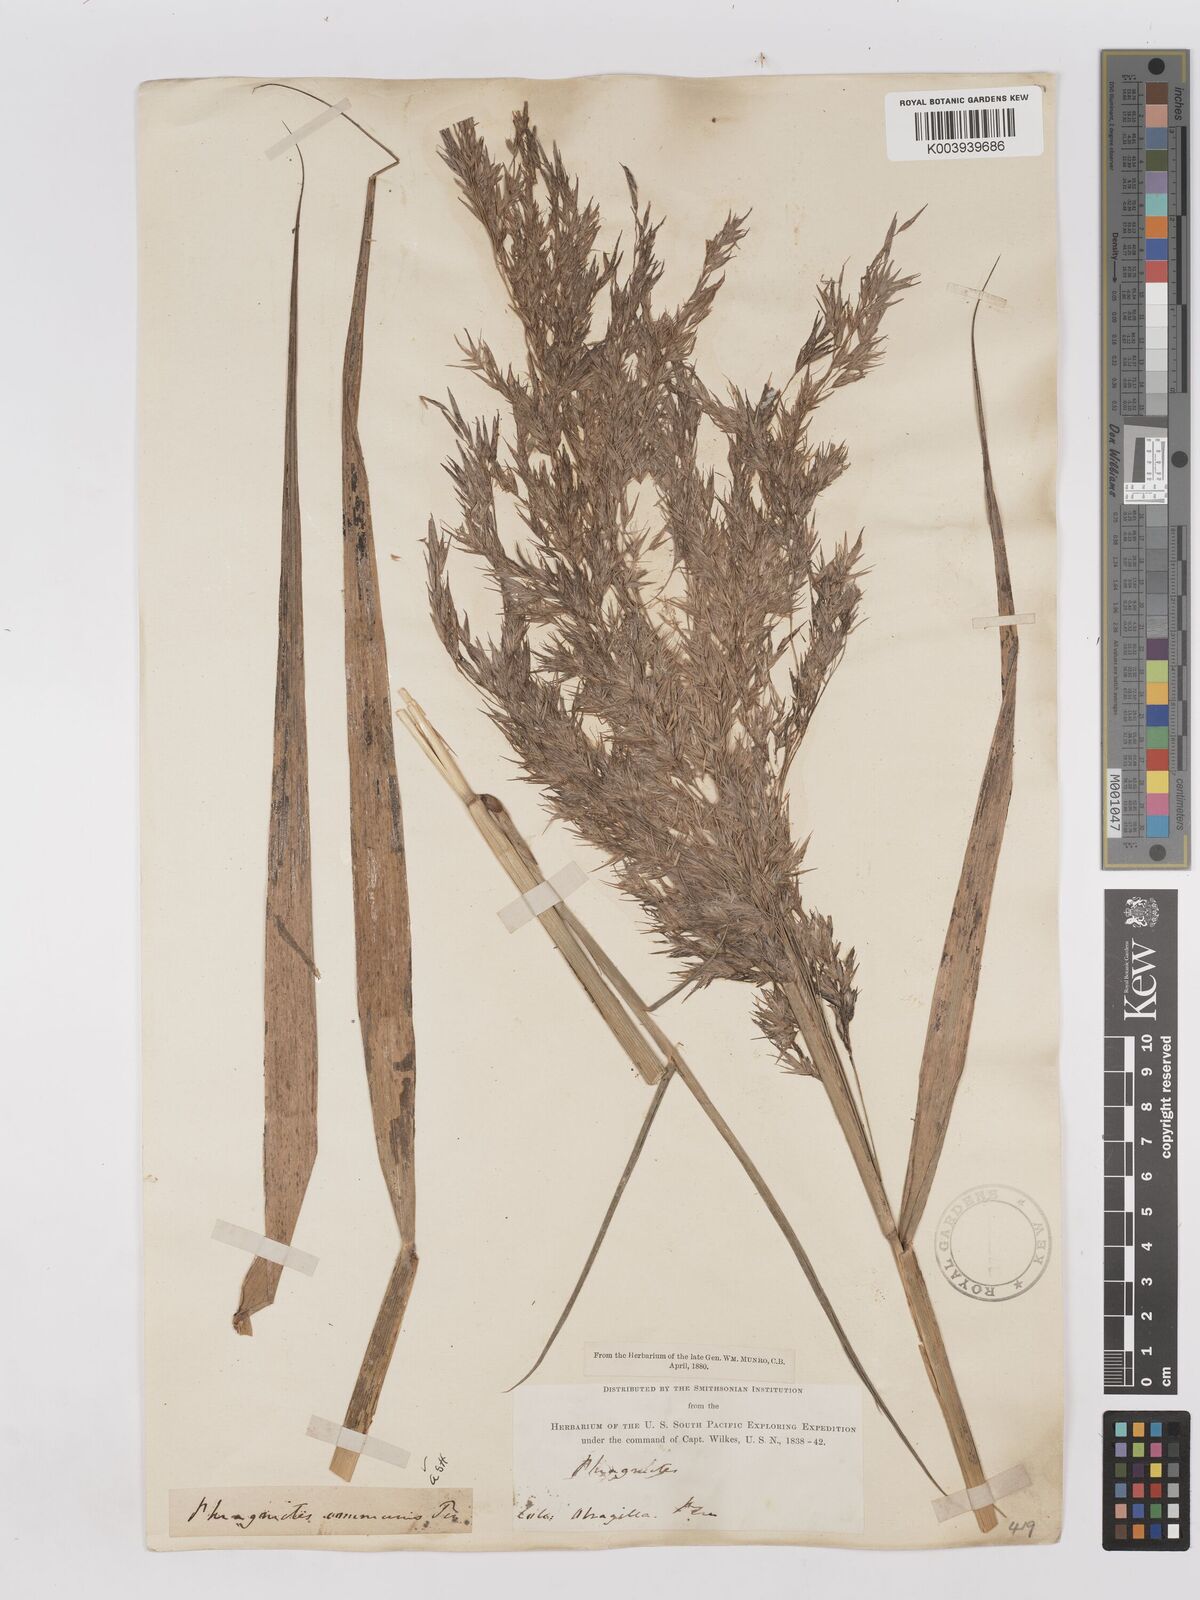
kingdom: Plantae
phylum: Tracheophyta
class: Liliopsida
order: Poales
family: Poaceae
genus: Phragmites
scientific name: Phragmites australis
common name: Common reed
